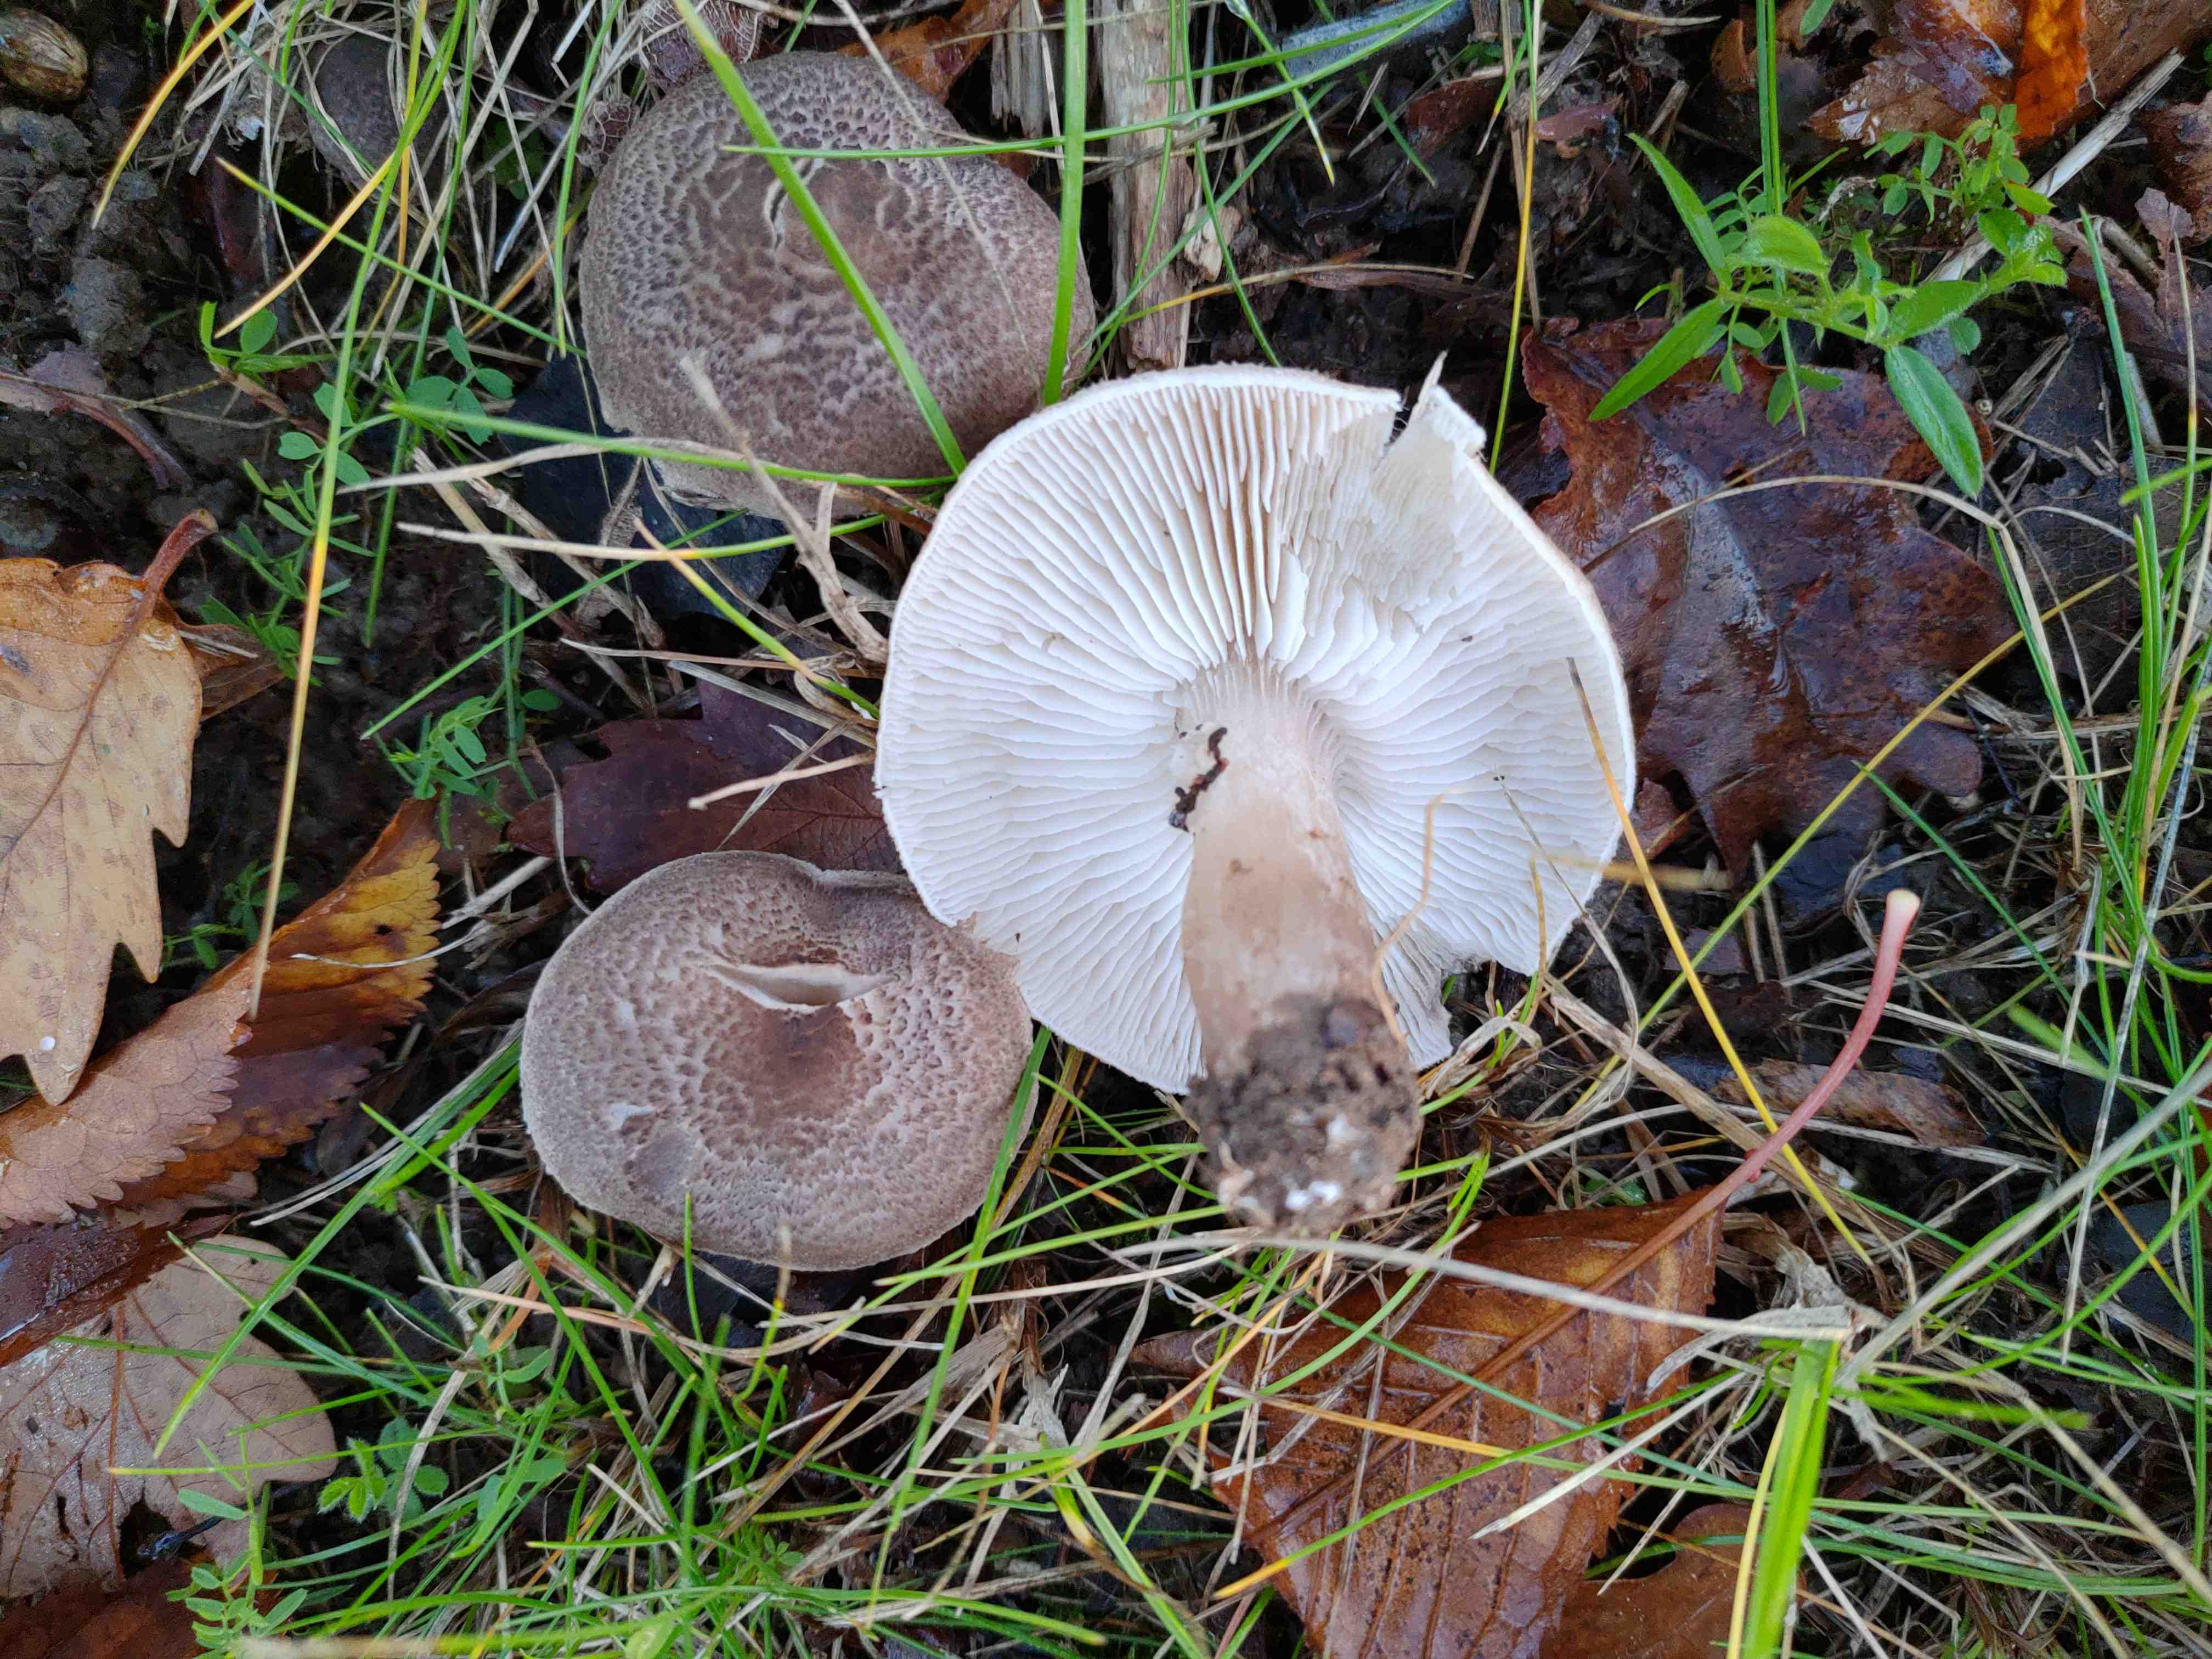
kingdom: Fungi
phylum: Basidiomycota
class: Agaricomycetes
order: Agaricales
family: Tricholomataceae
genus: Tricholoma
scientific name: Tricholoma scalpturatum
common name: gulplettet ridderhat
